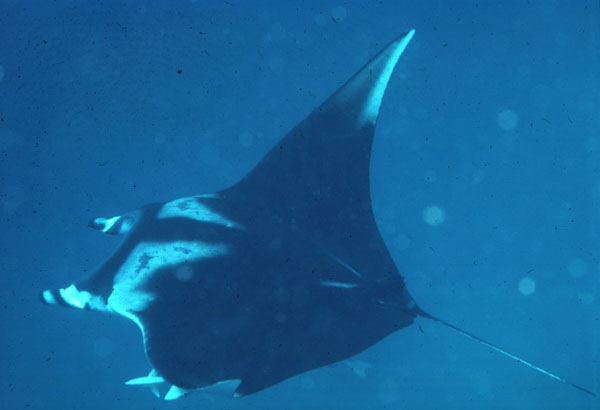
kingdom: Animalia
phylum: Chordata
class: Elasmobranchii
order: Myliobatiformes
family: Myliobatidae
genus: Mobula
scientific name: Mobula birostris
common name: Manta ray
